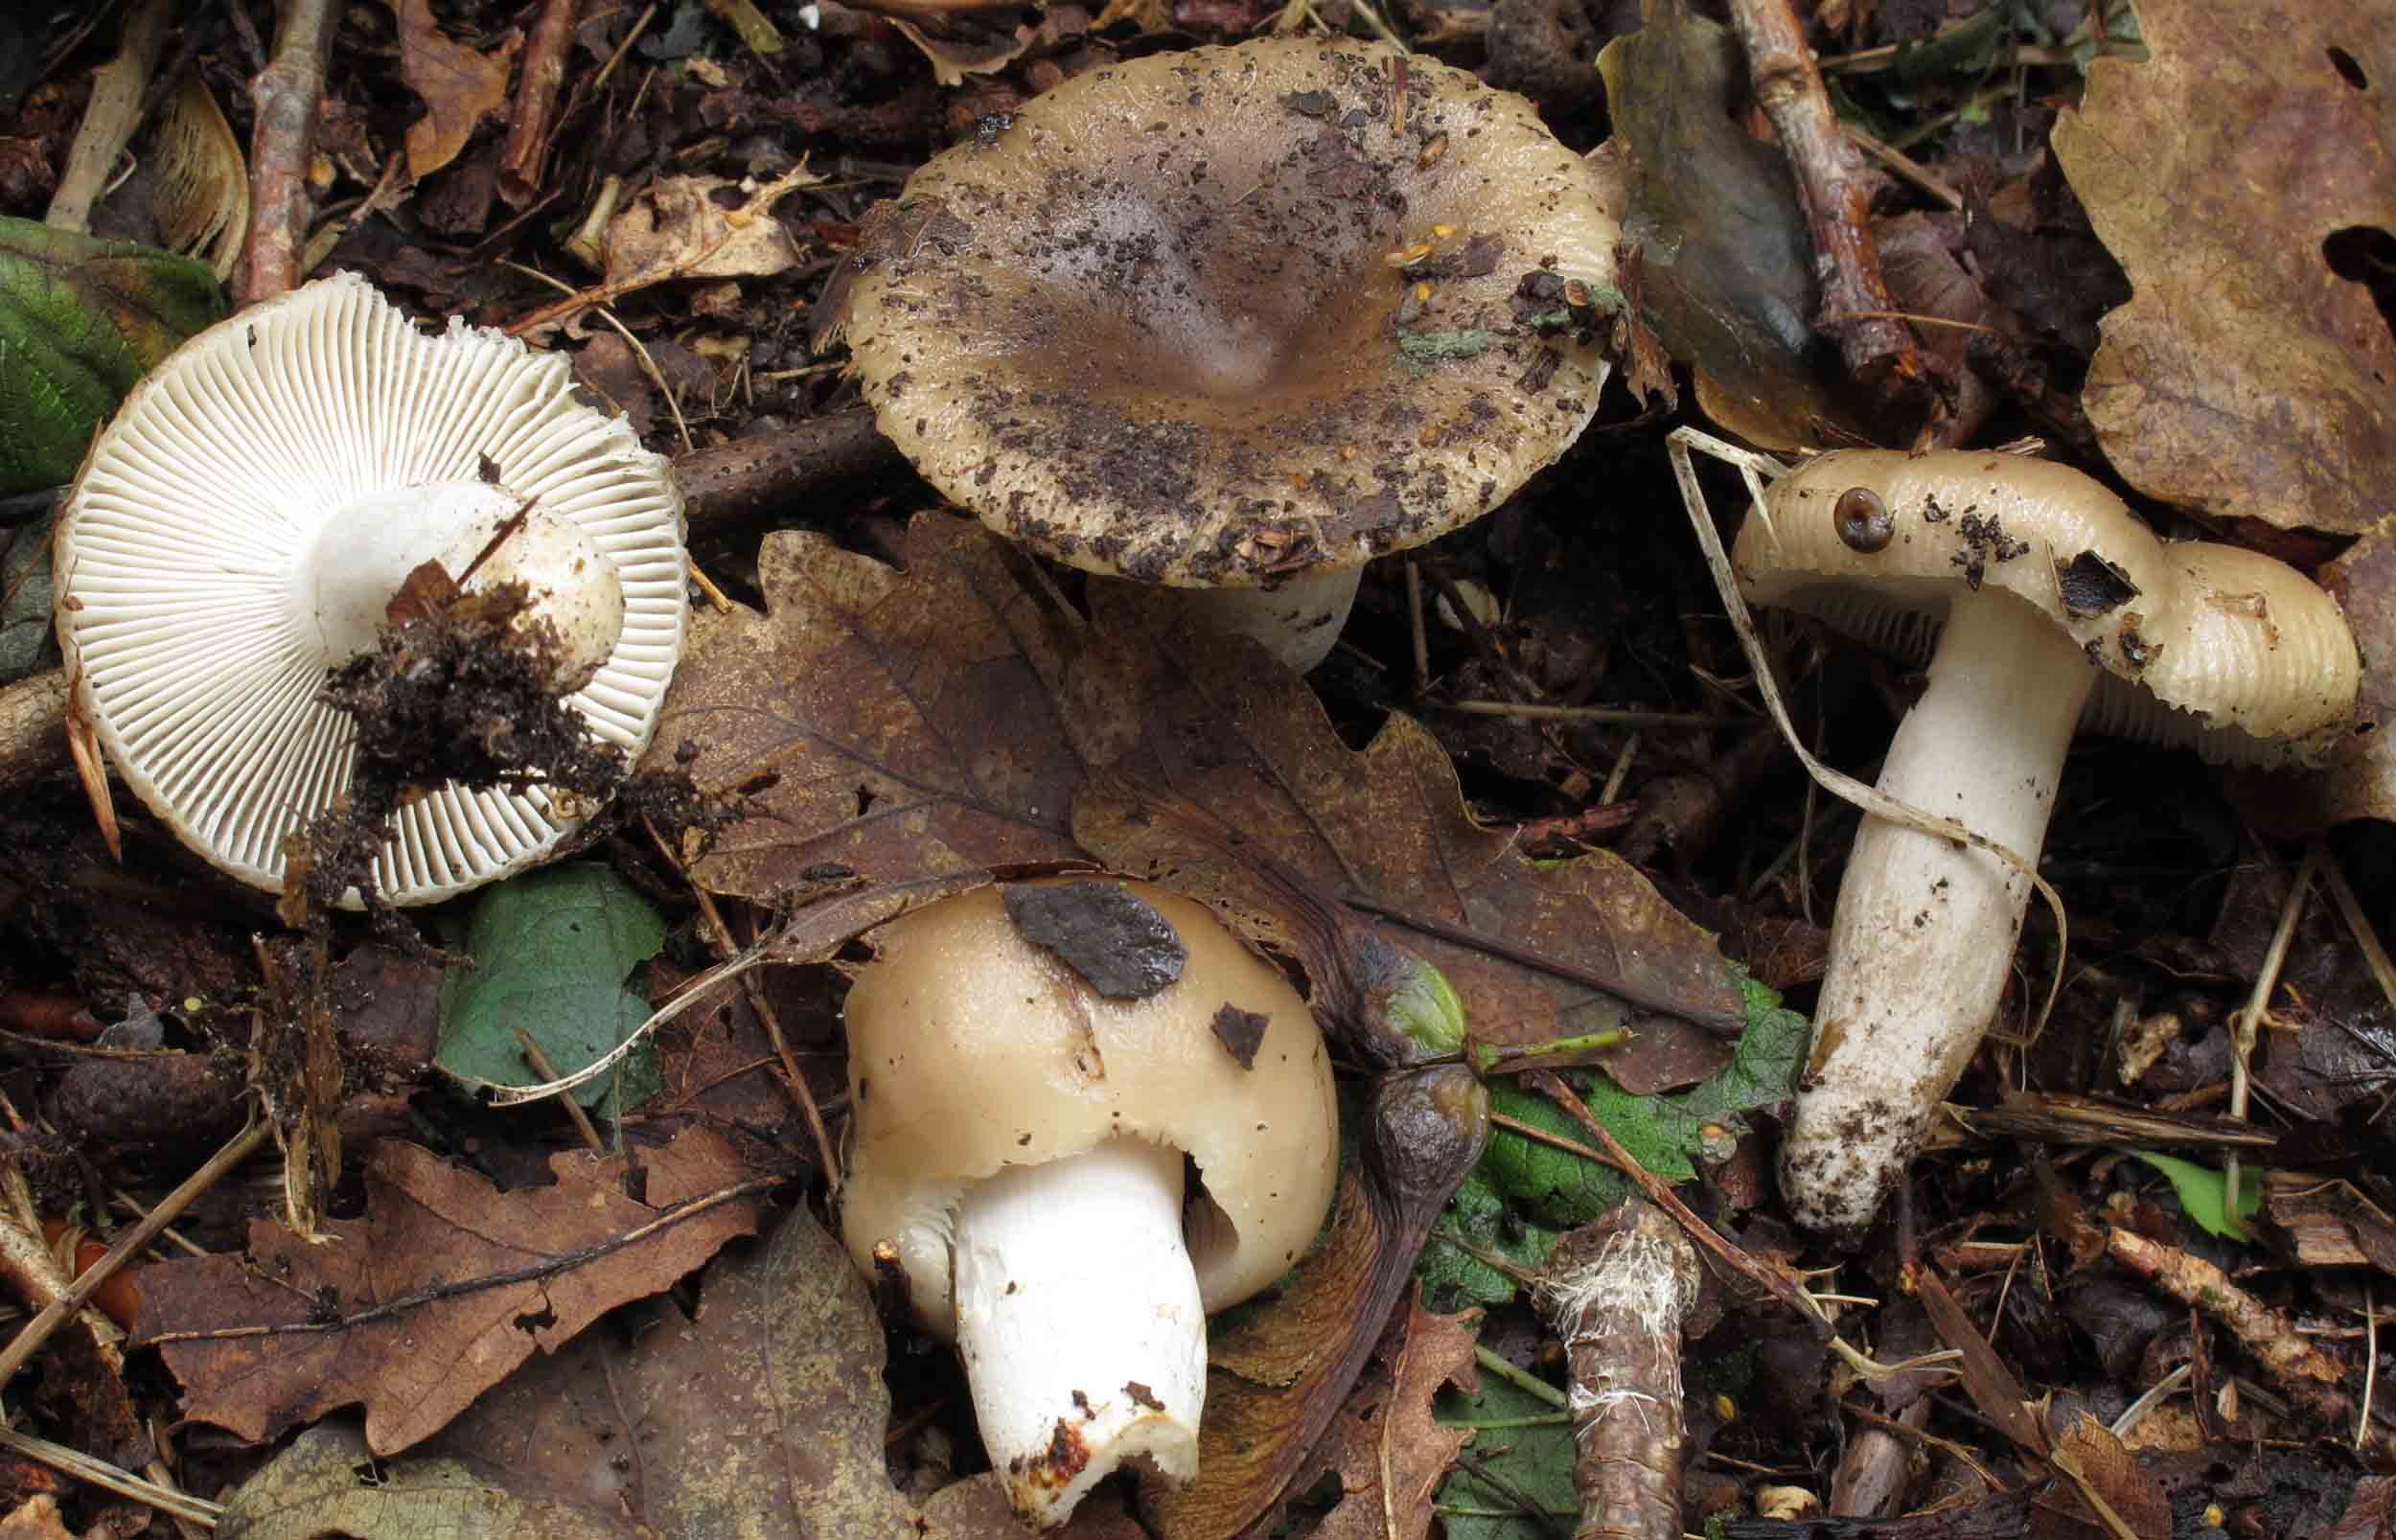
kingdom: Fungi
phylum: Basidiomycota
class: Agaricomycetes
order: Russulales
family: Russulaceae
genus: Russula
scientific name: Russula amoenolens
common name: skarp kam-skørhat
